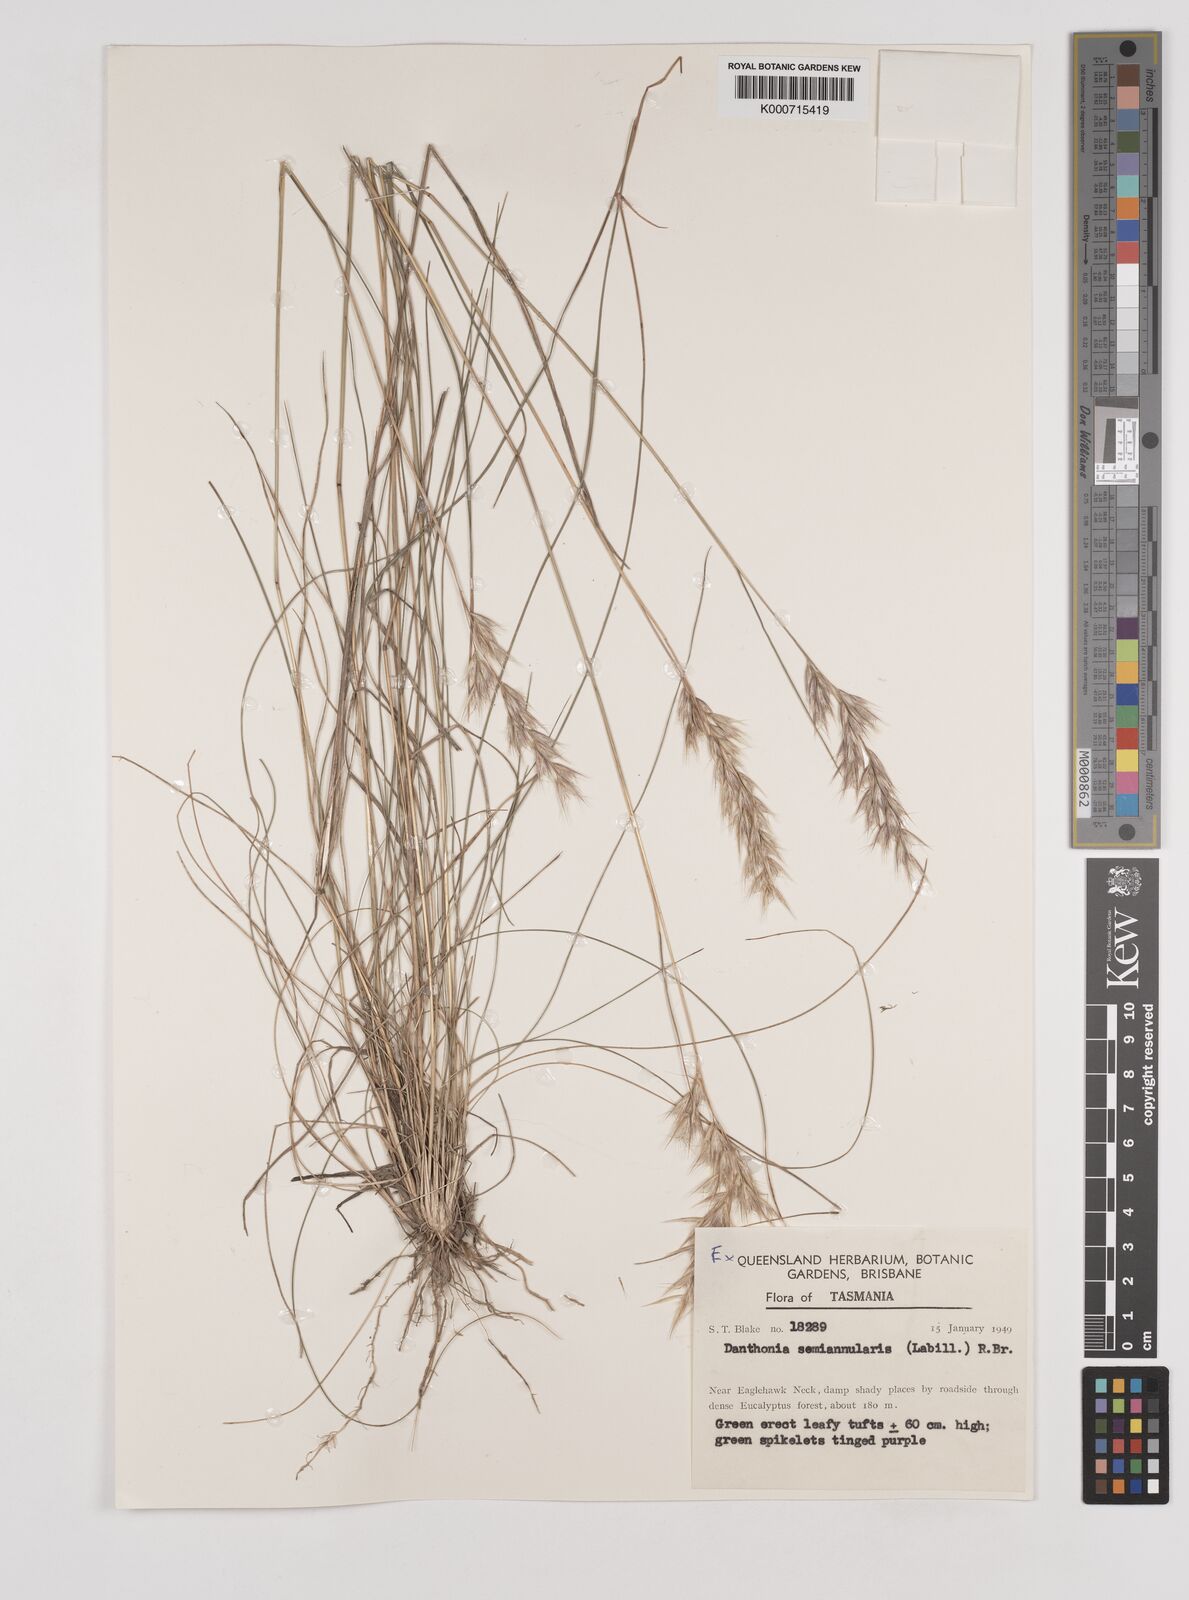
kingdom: Plantae
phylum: Tracheophyta
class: Liliopsida
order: Poales
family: Poaceae
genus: Rytidosperma
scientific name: Rytidosperma semiannulare
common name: Tasmanian wallaby grass
